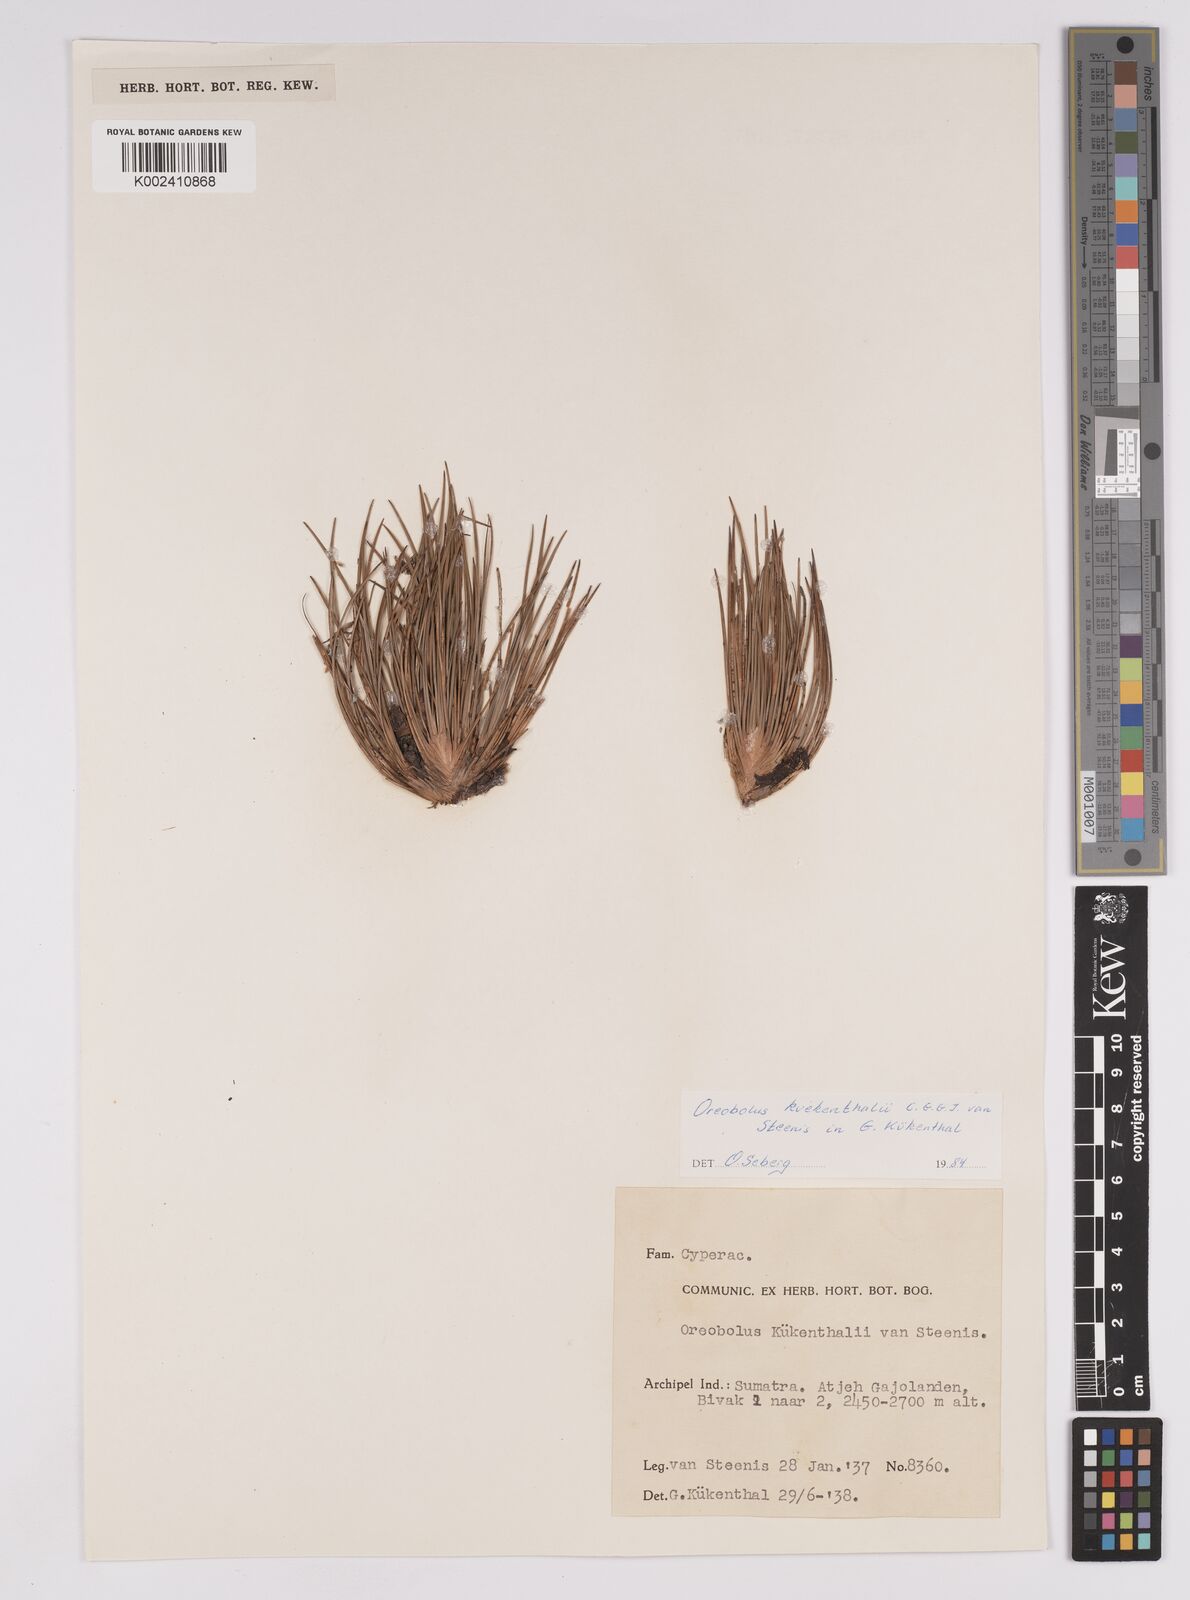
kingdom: Plantae
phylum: Tracheophyta
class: Liliopsida
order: Poales
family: Cyperaceae
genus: Oreobolus
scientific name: Oreobolus kuekenthalii
